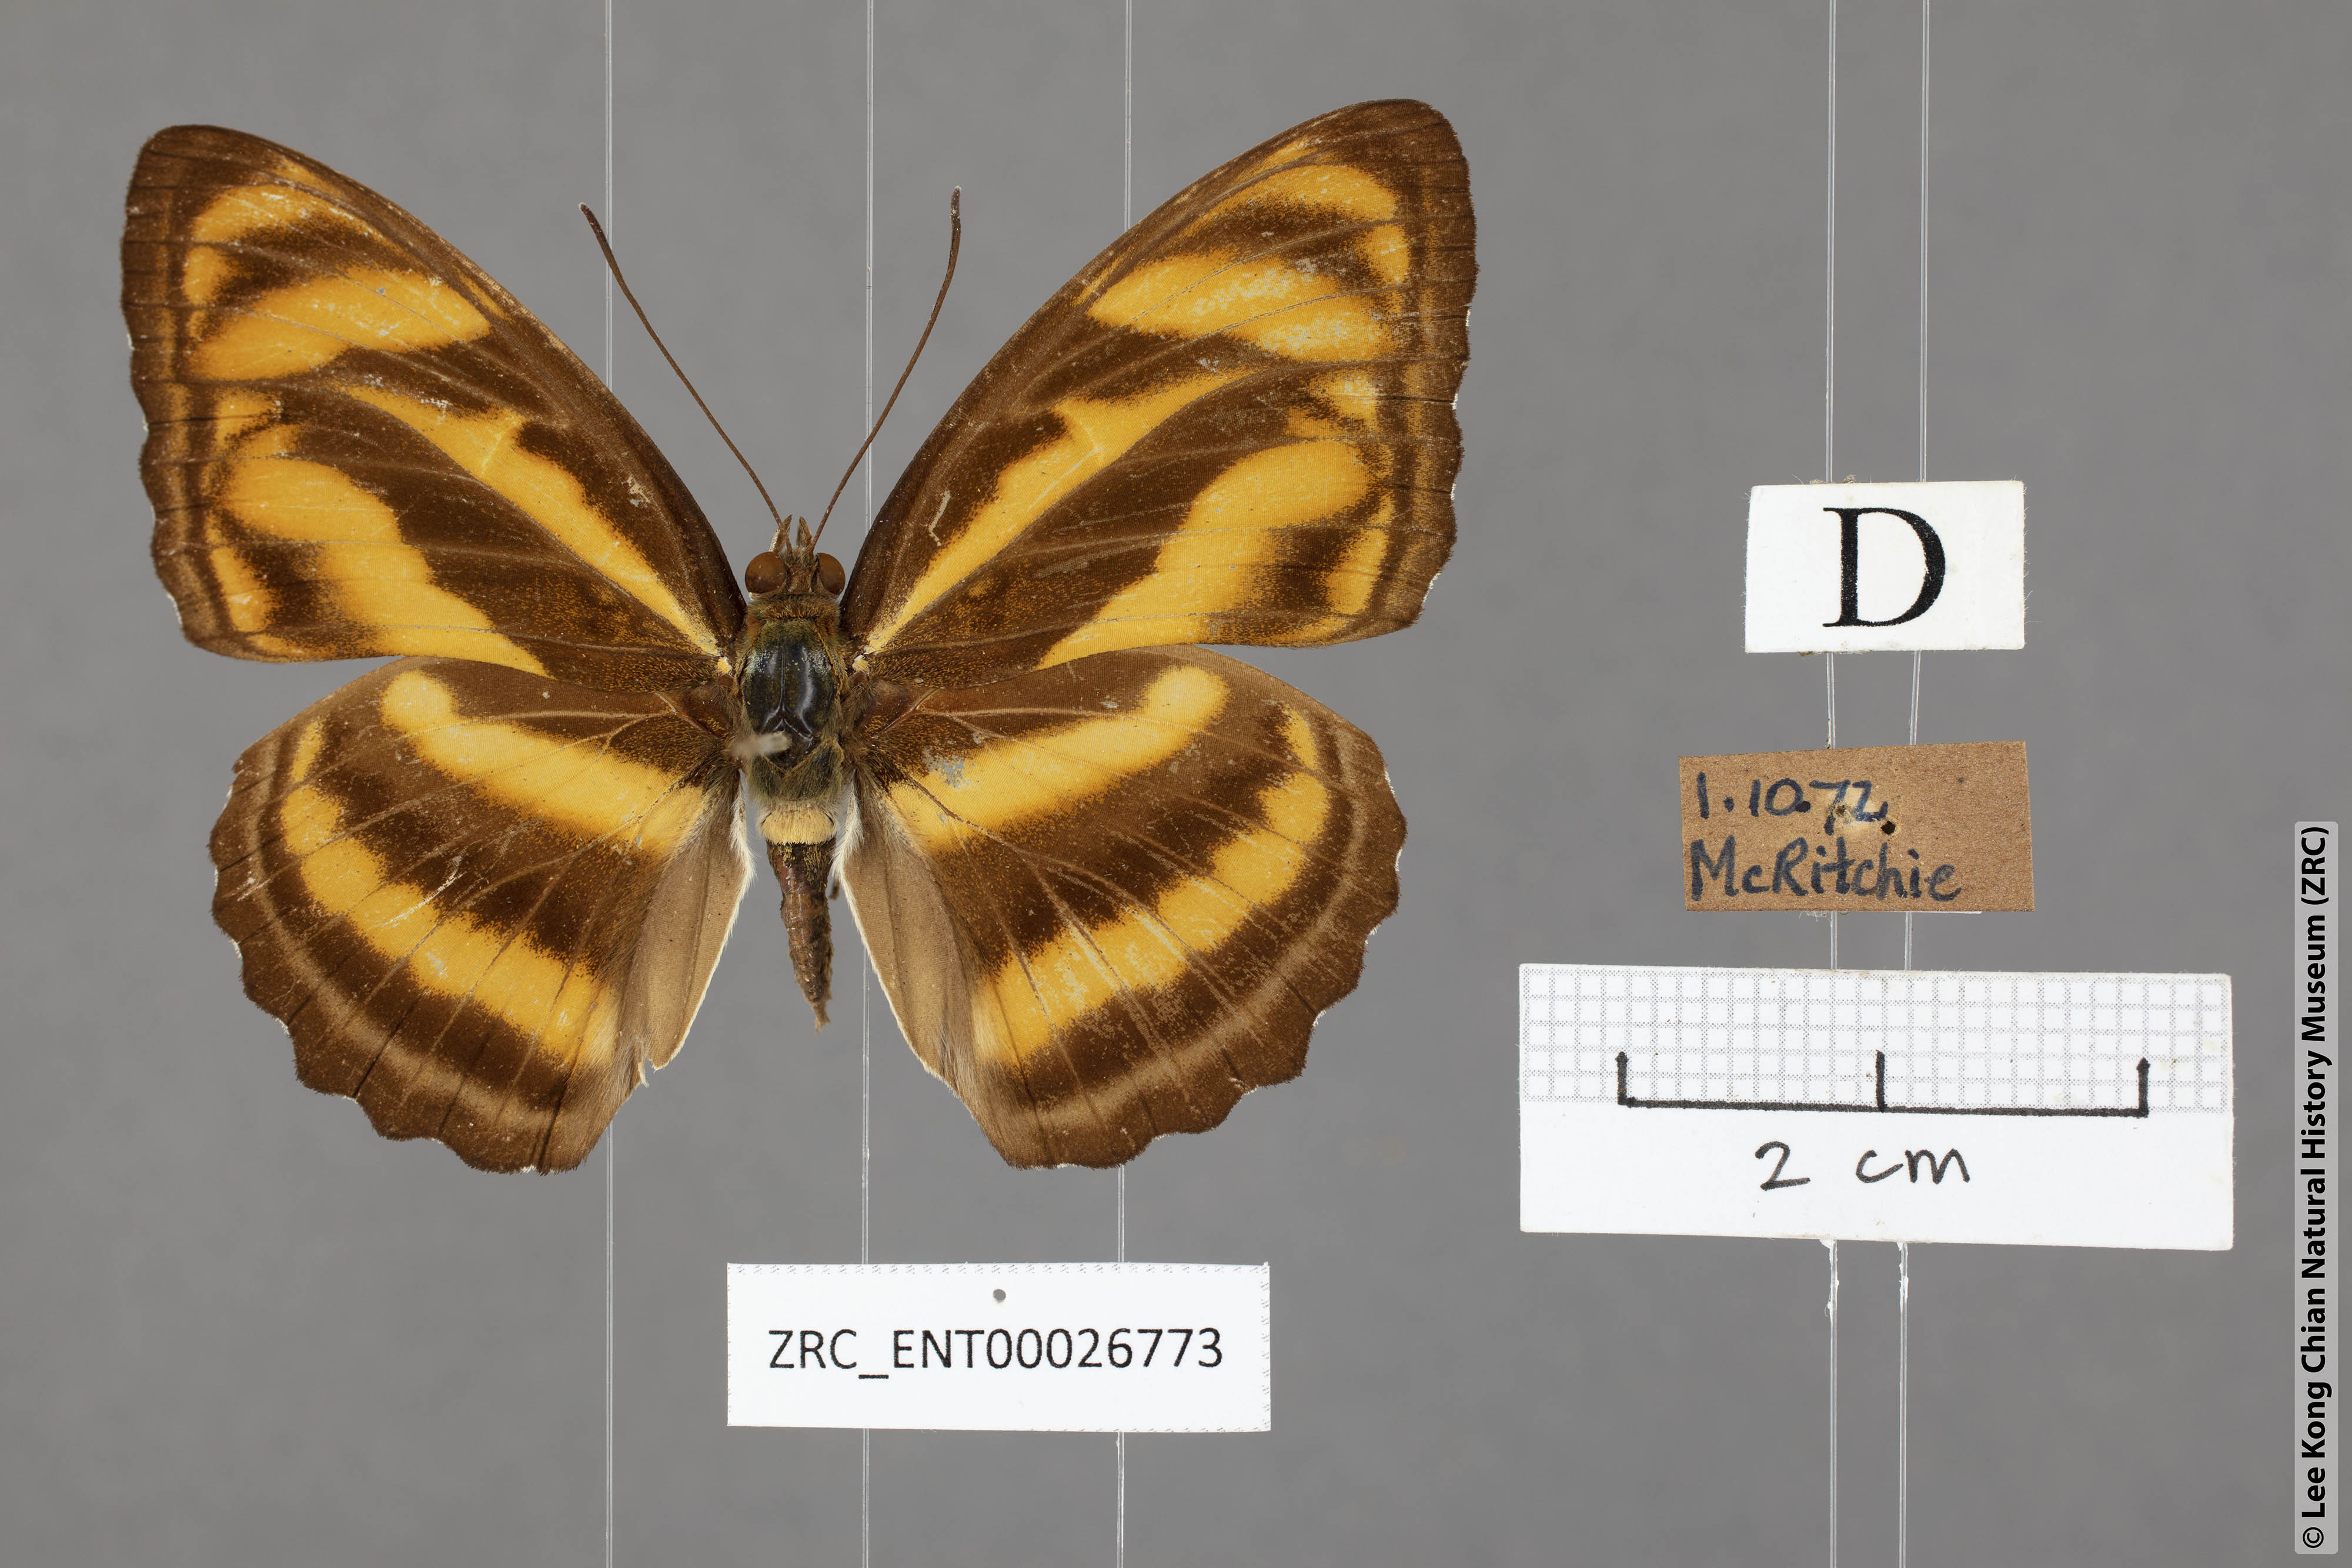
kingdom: Animalia
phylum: Arthropoda
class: Insecta
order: Lepidoptera
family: Nymphalidae
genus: Parathyma
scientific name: Parathyma nefte
